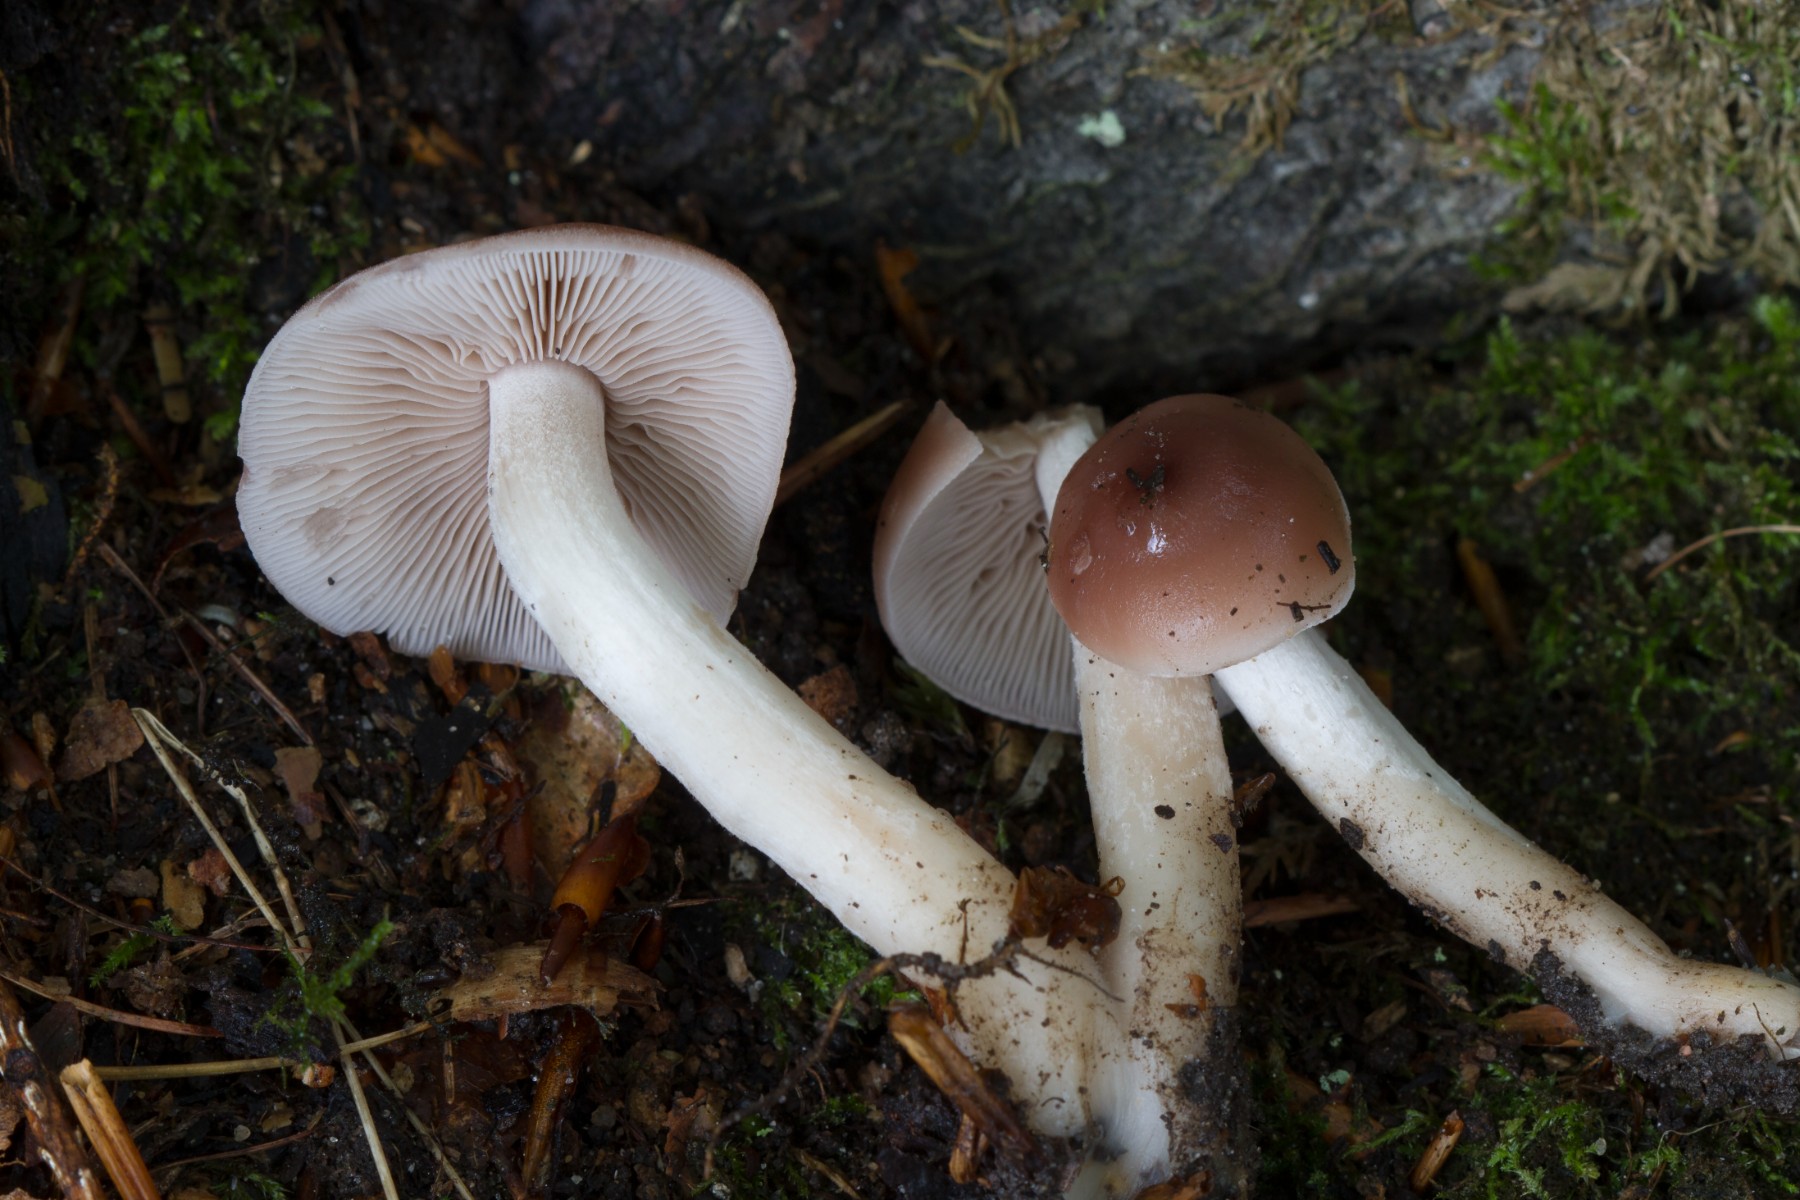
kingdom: Fungi
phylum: Basidiomycota
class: Agaricomycetes
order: Agaricales
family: Psathyrellaceae
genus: Homophron
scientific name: Homophron spadiceum
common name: daddelbrun mørkhat
